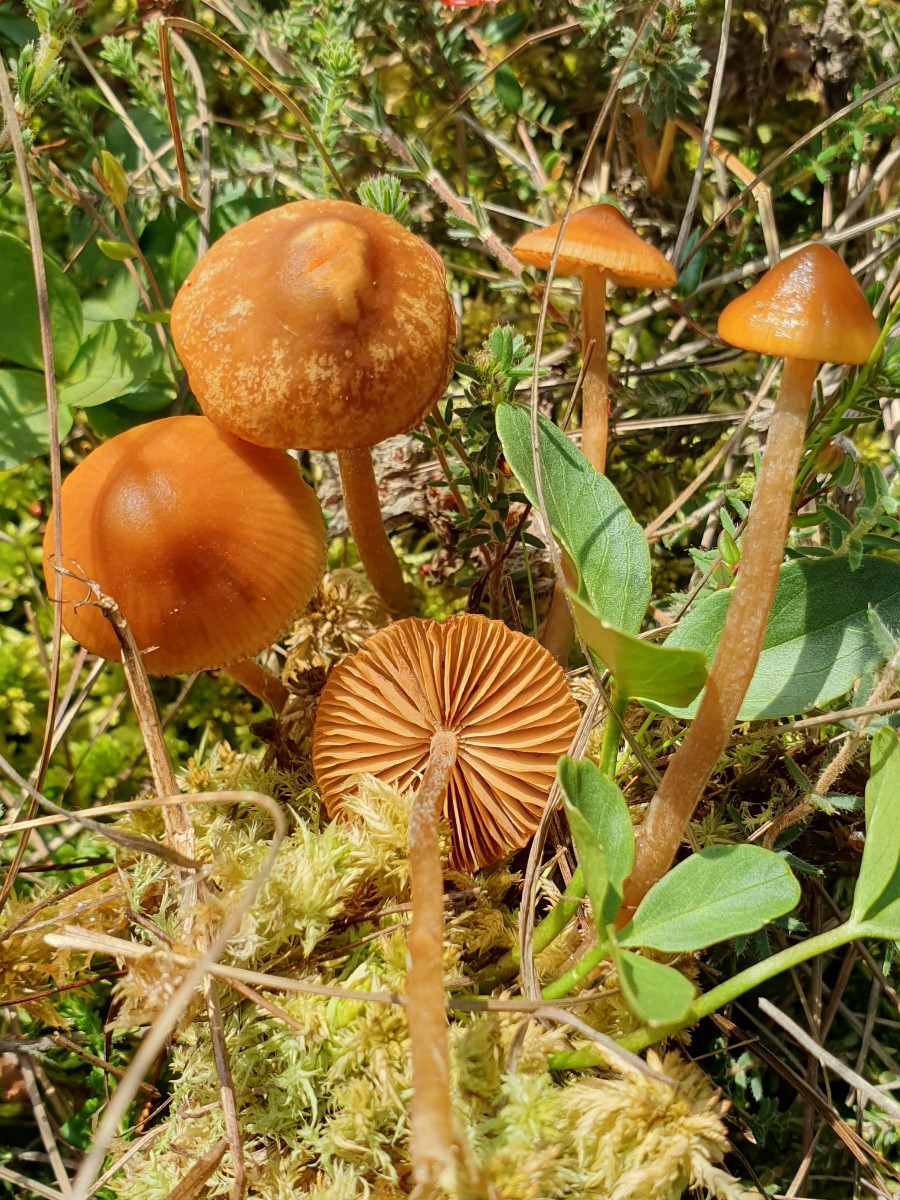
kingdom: Fungi
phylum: Basidiomycota
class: Agaricomycetes
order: Agaricales
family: Hymenogastraceae
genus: Galerina
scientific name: Galerina hybrida
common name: hængesæk-hjelmhat
